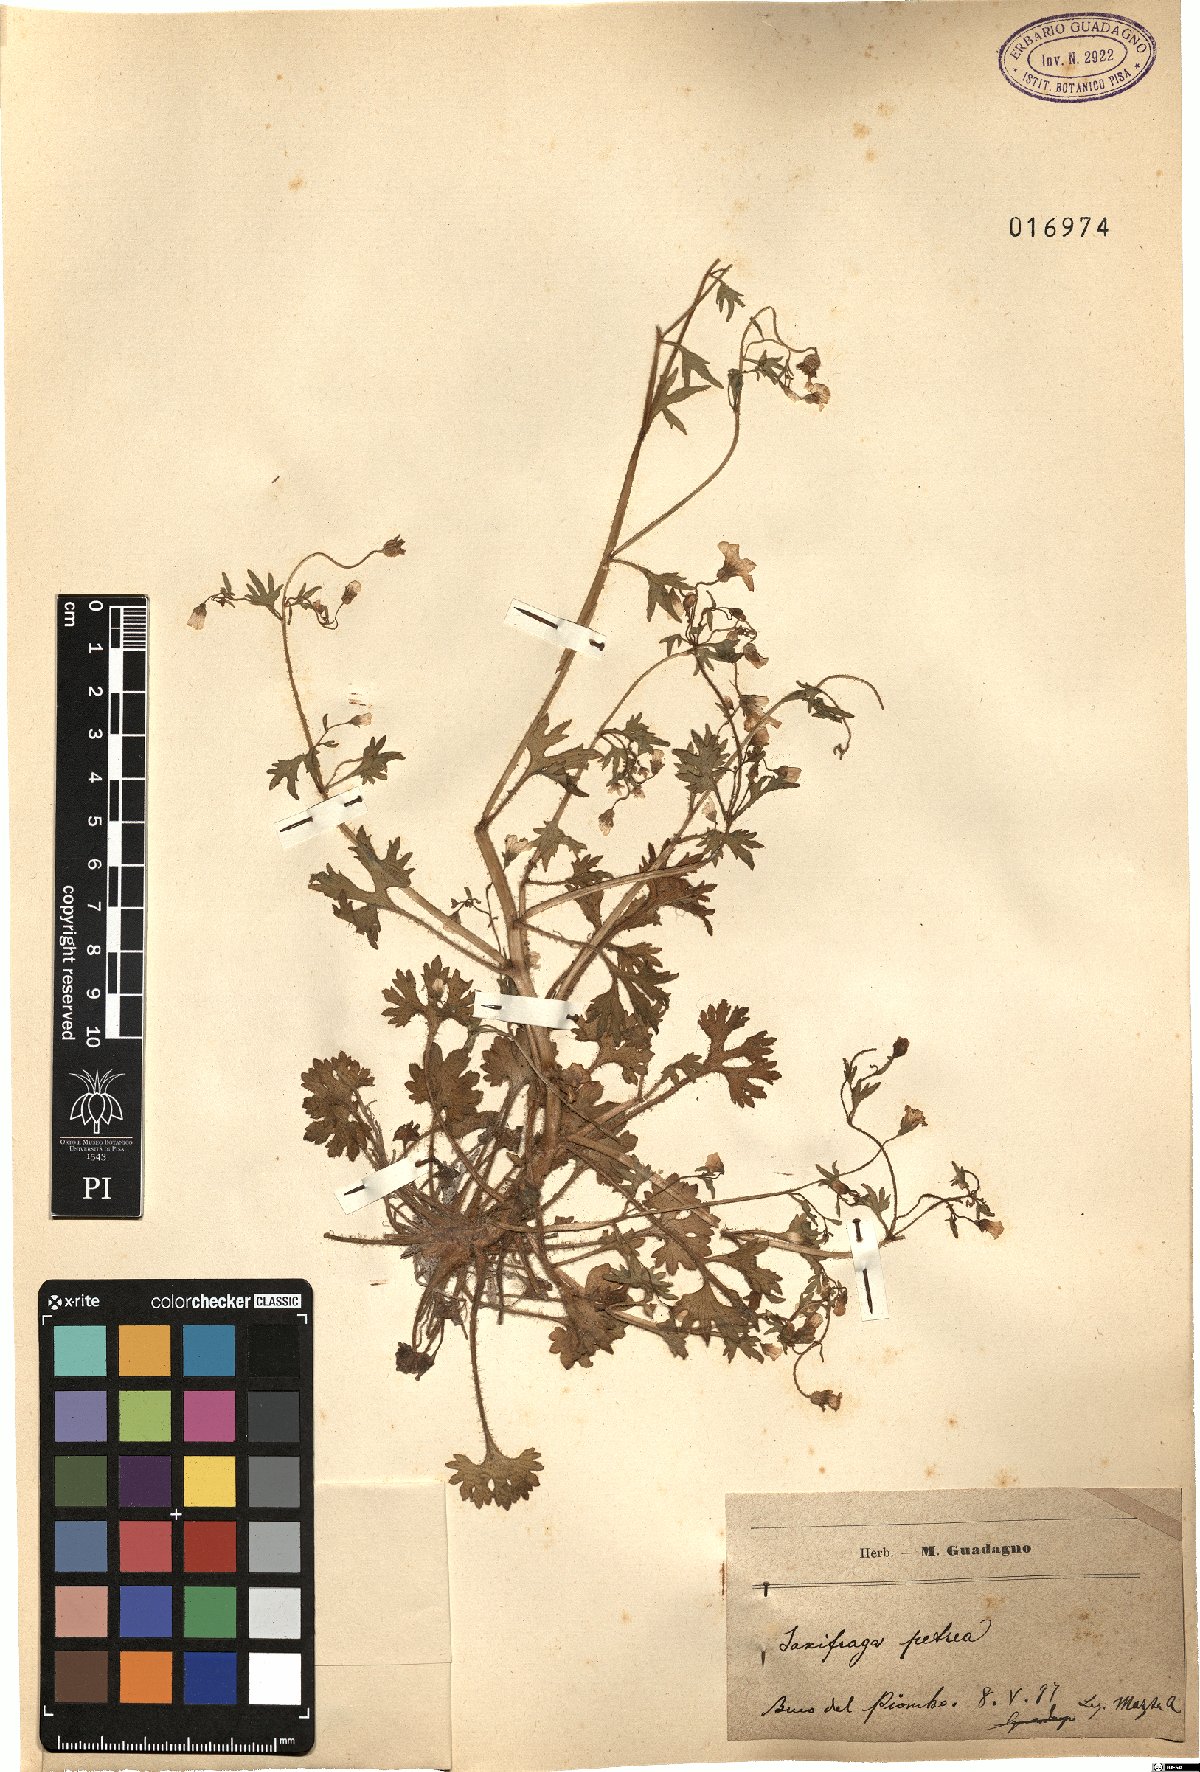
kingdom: Plantae
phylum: Tracheophyta
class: Magnoliopsida
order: Saxifragales
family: Saxifragaceae
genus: Saxifraga
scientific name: Saxifraga petraea
